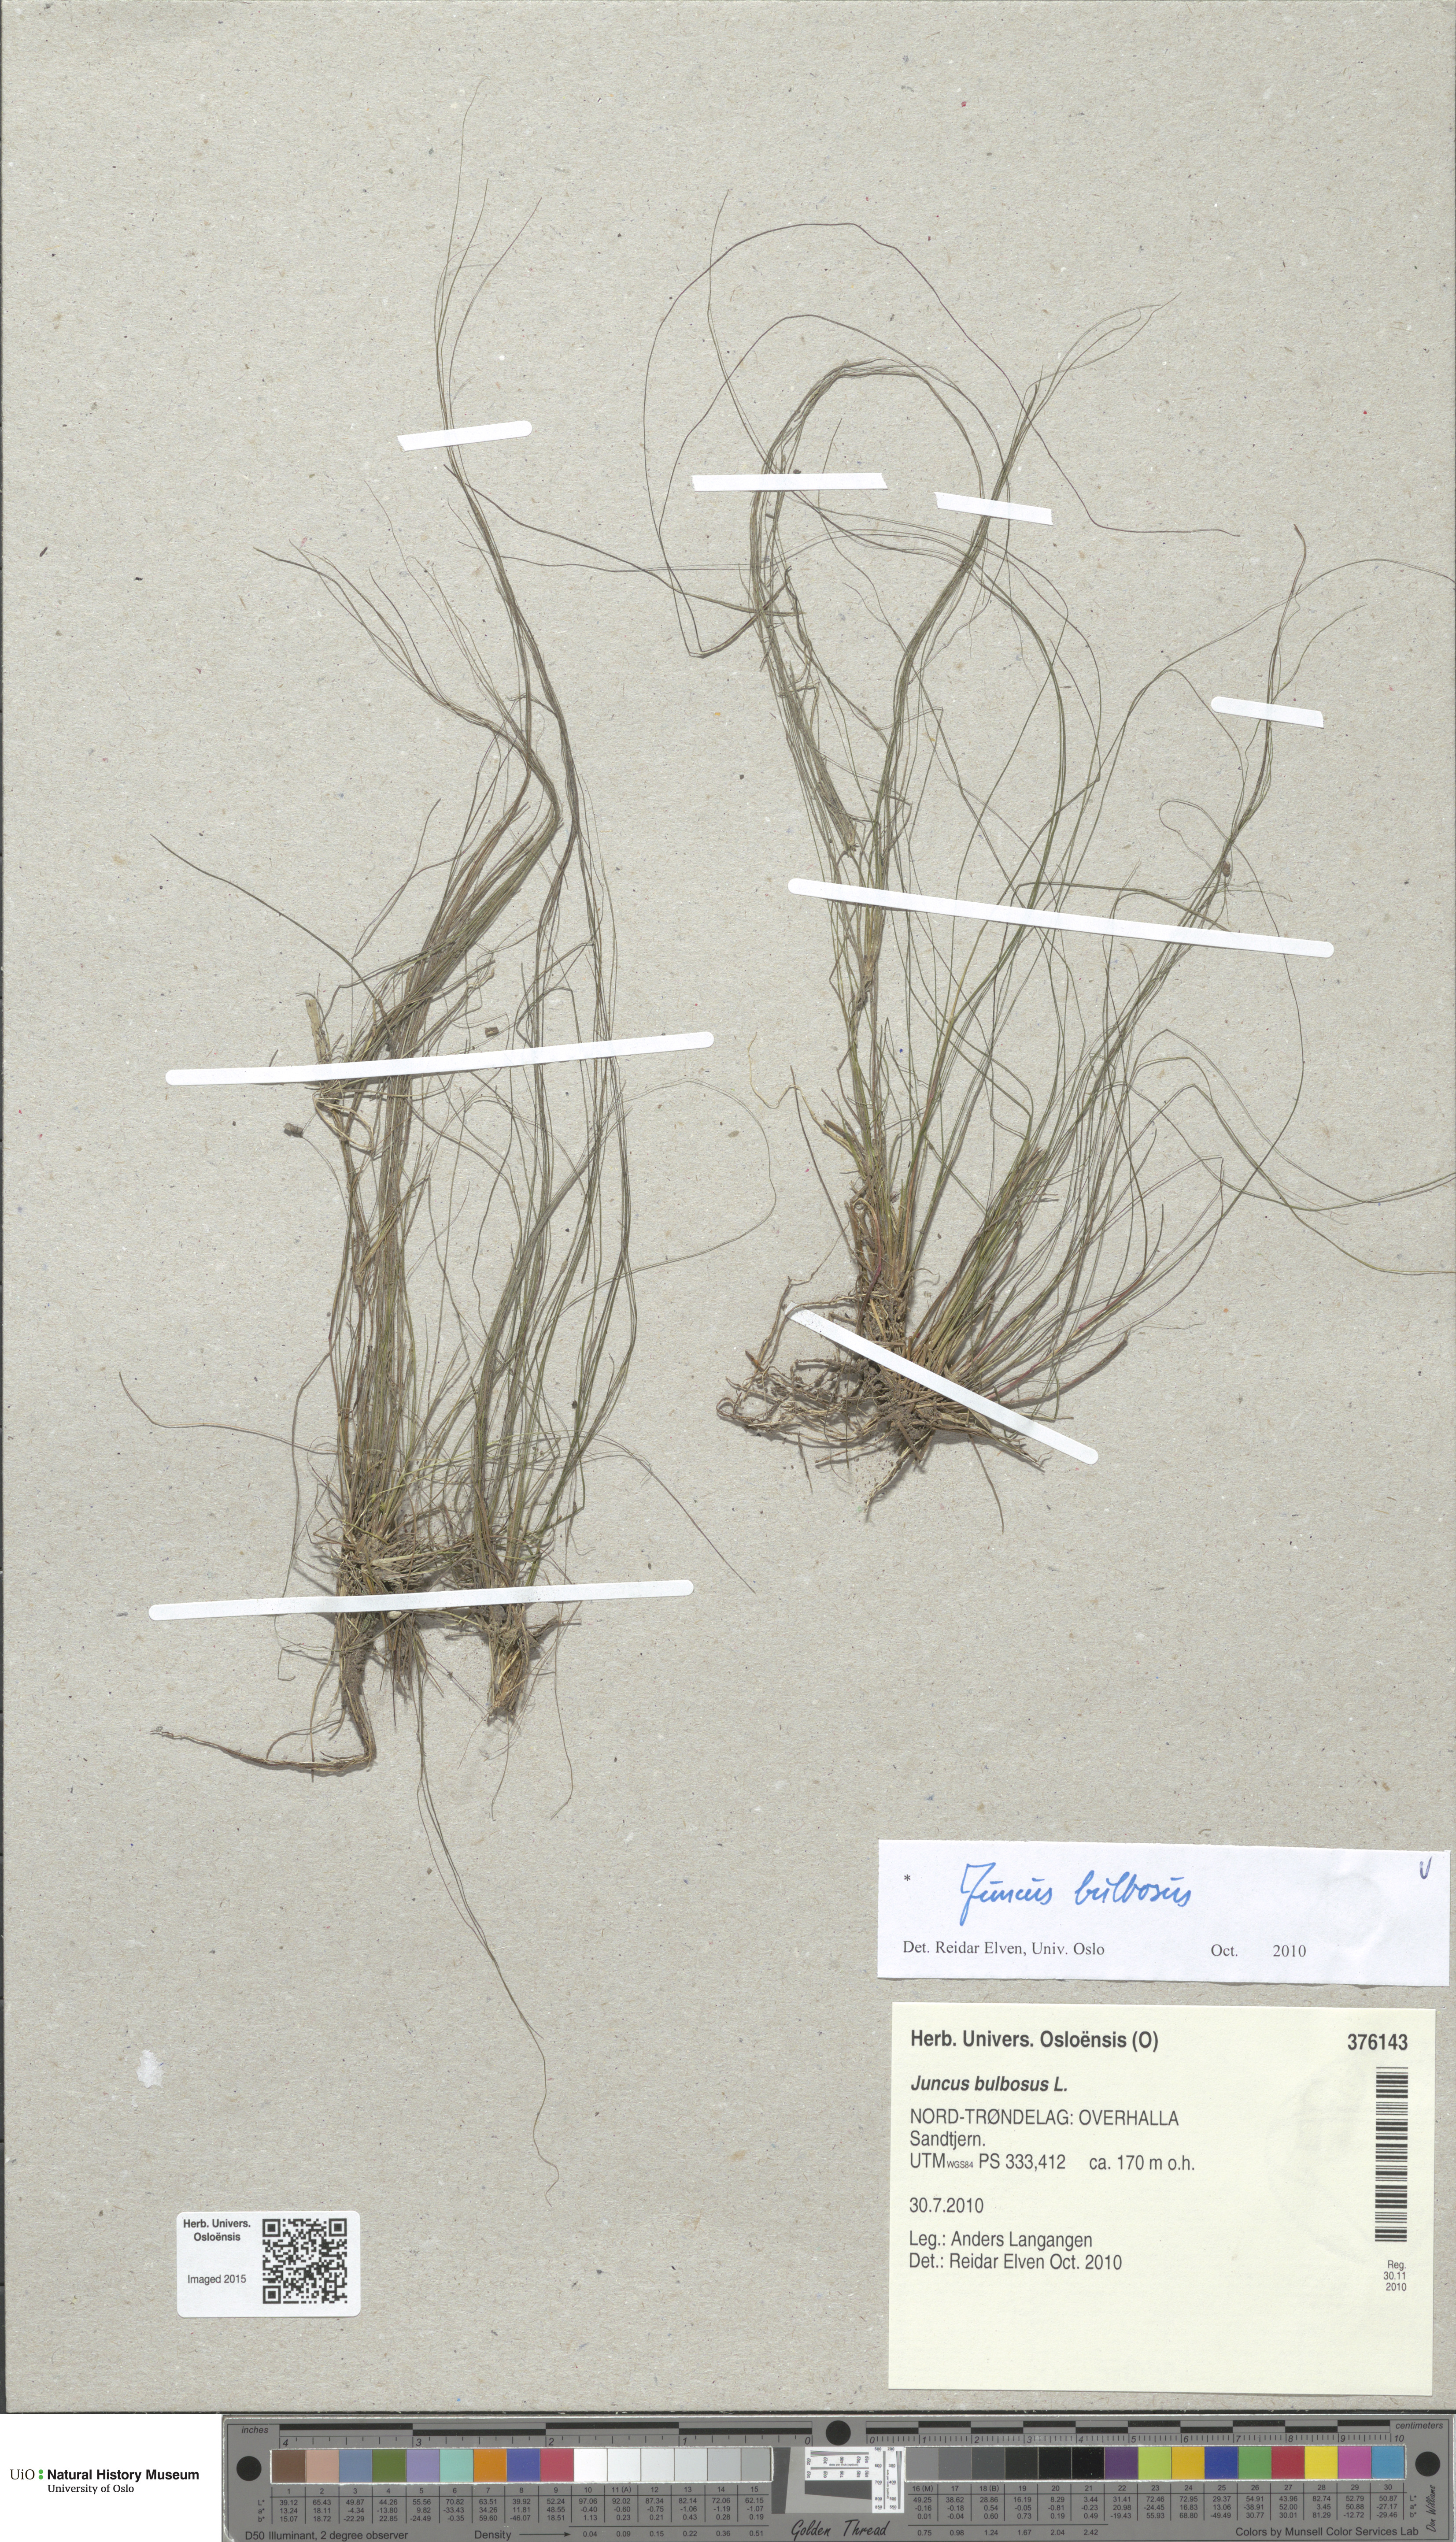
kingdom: Plantae
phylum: Tracheophyta
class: Liliopsida
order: Poales
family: Juncaceae
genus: Juncus
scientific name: Juncus bulbosus
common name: Bulbous rush
